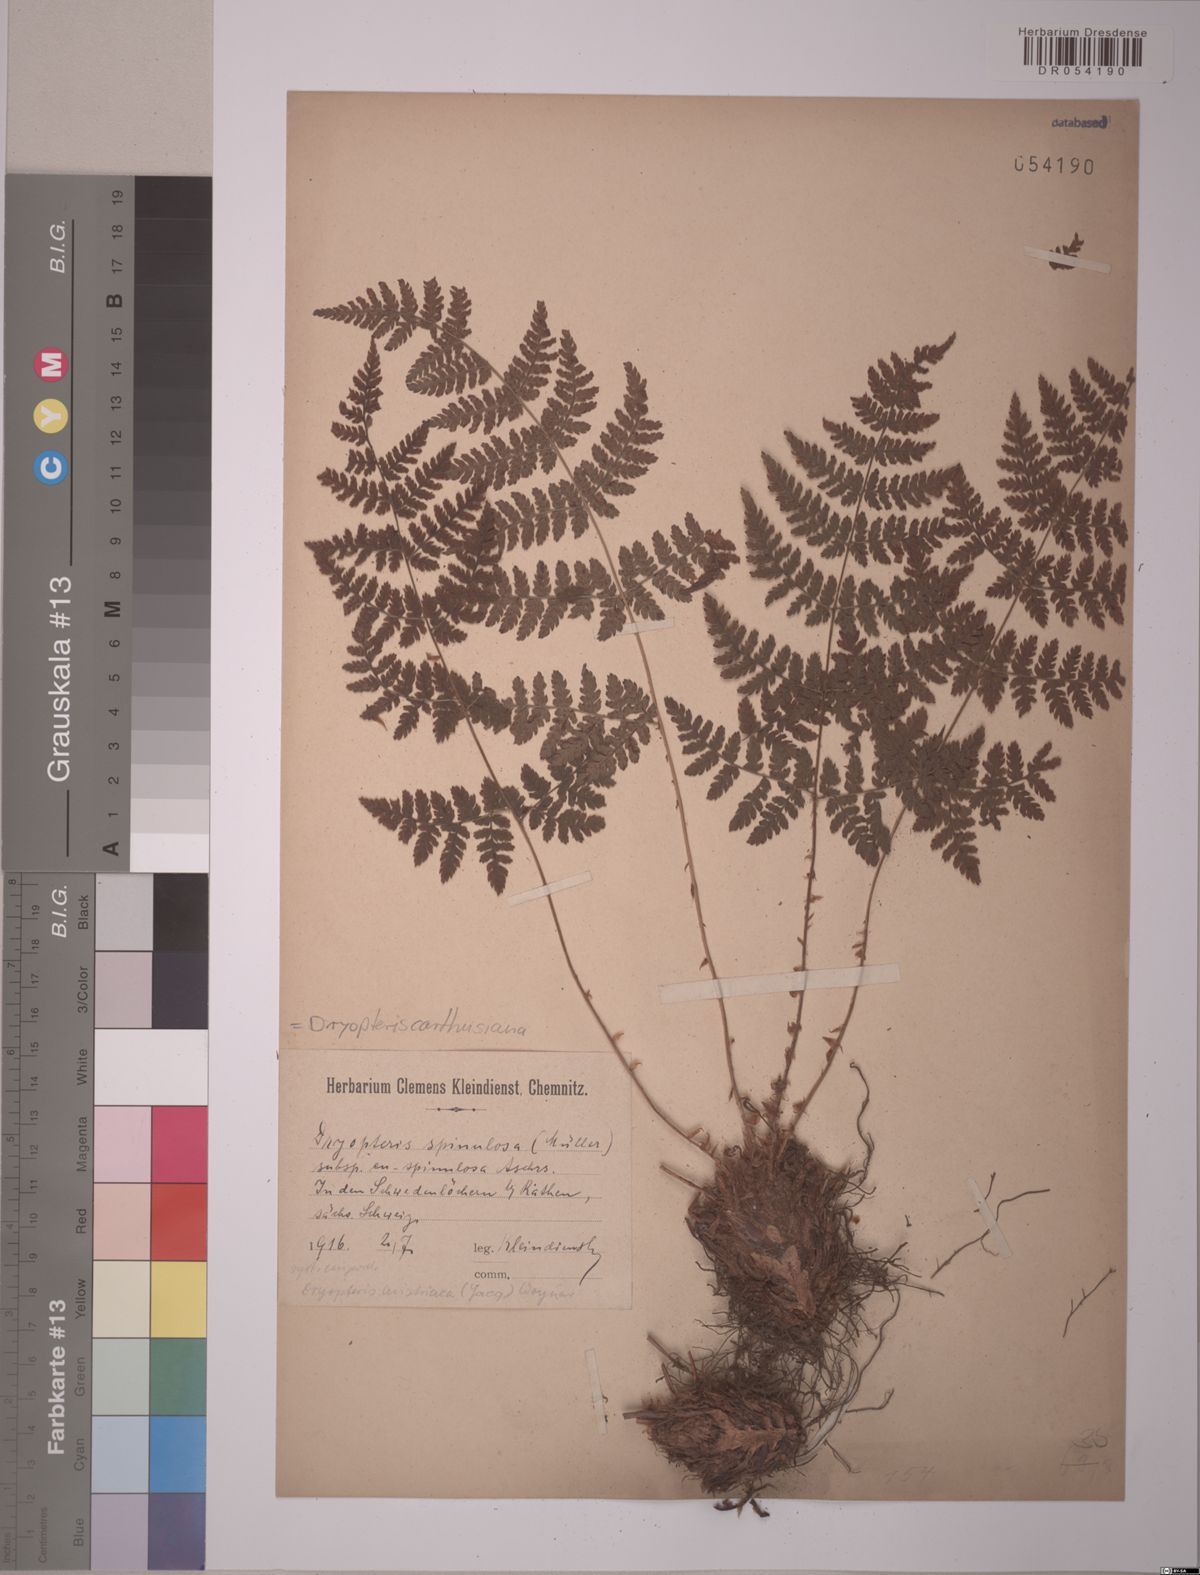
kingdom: Plantae
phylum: Tracheophyta
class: Polypodiopsida
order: Polypodiales
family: Dryopteridaceae
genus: Dryopteris
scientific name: Dryopteris carthusiana
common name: Narrow buckler-fern
